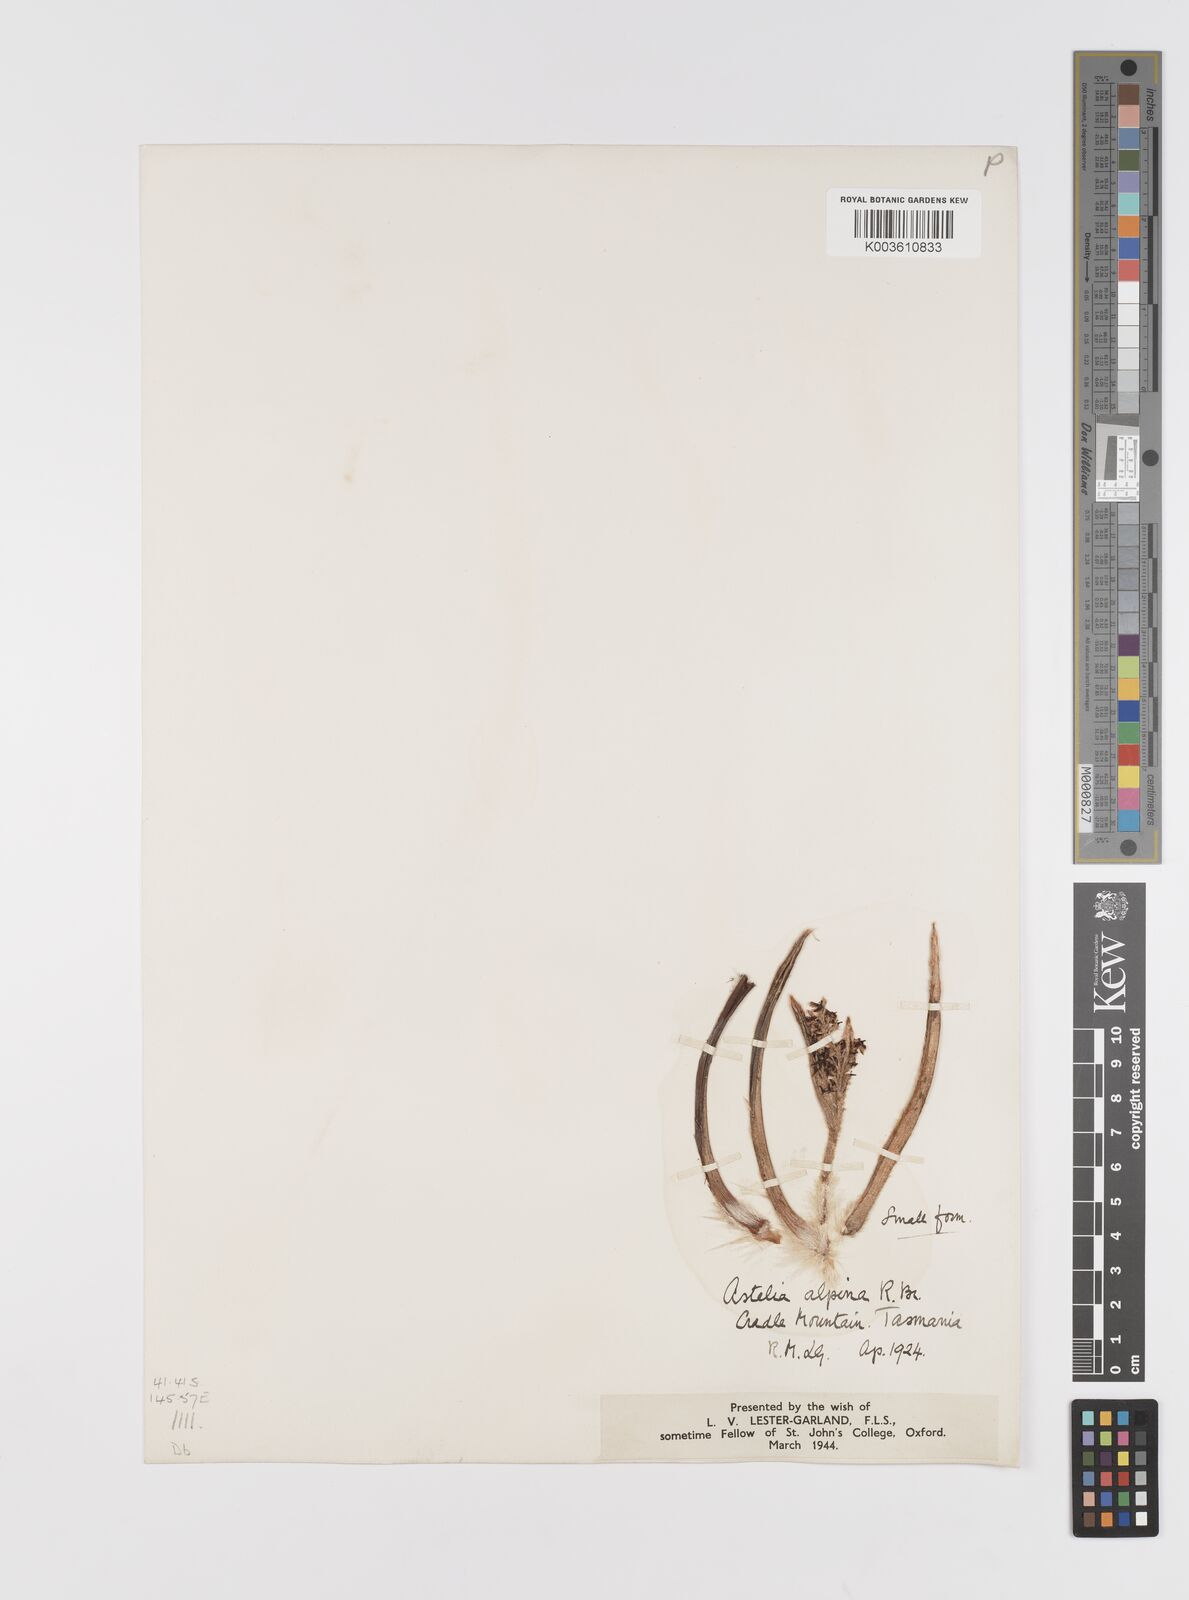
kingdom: Plantae
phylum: Tracheophyta
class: Liliopsida
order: Asparagales
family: Asteliaceae
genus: Astelia
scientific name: Astelia alpina
